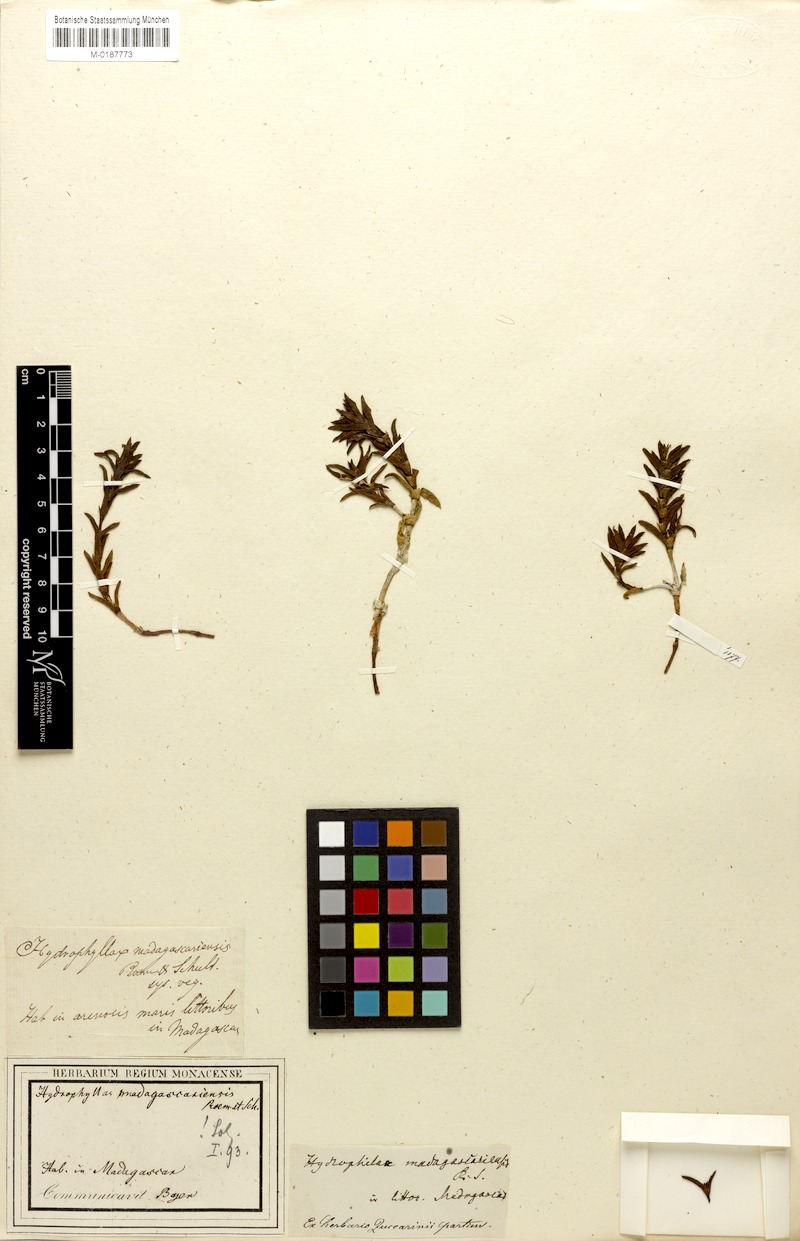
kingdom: Plantae
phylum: Tracheophyta
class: Magnoliopsida
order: Gentianales
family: Rubiaceae
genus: Phylohydrax
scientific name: Phylohydrax madagascariensis
